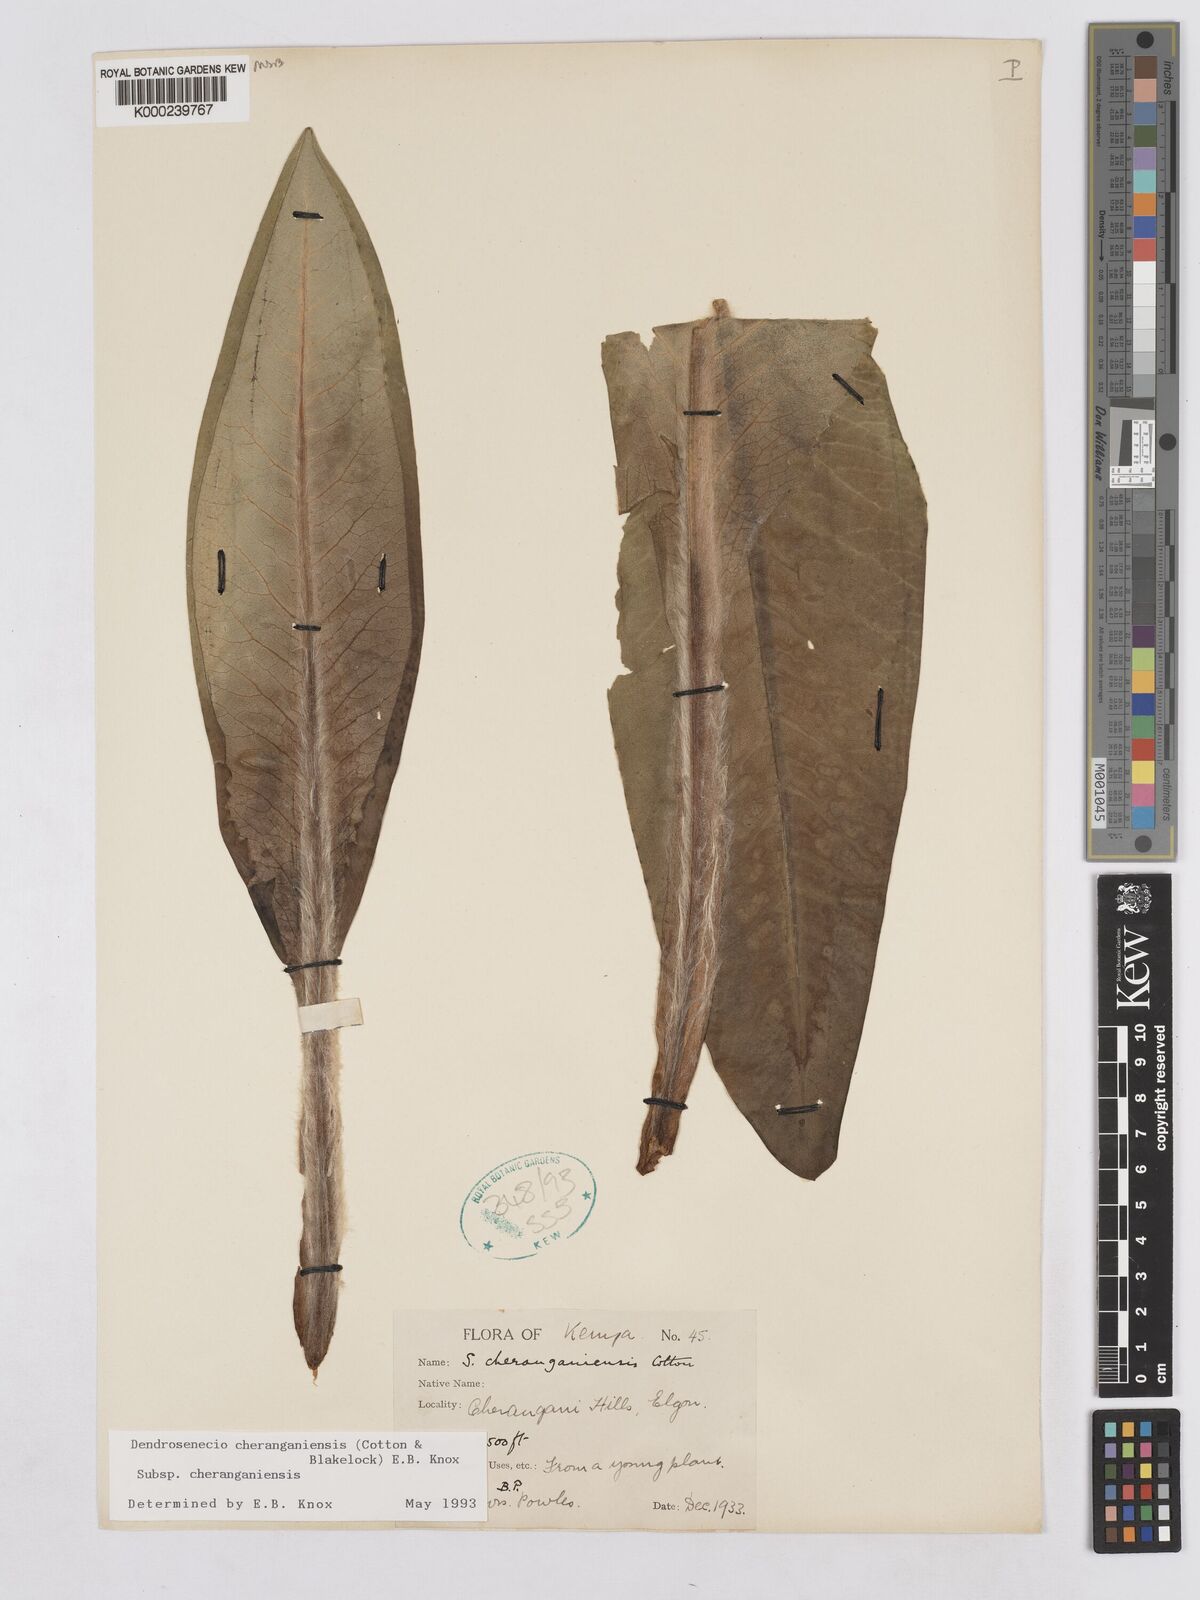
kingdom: Plantae
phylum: Tracheophyta
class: Magnoliopsida
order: Asterales
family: Asteraceae
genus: Dendrosenecio
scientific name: Dendrosenecio cheranganiensis
